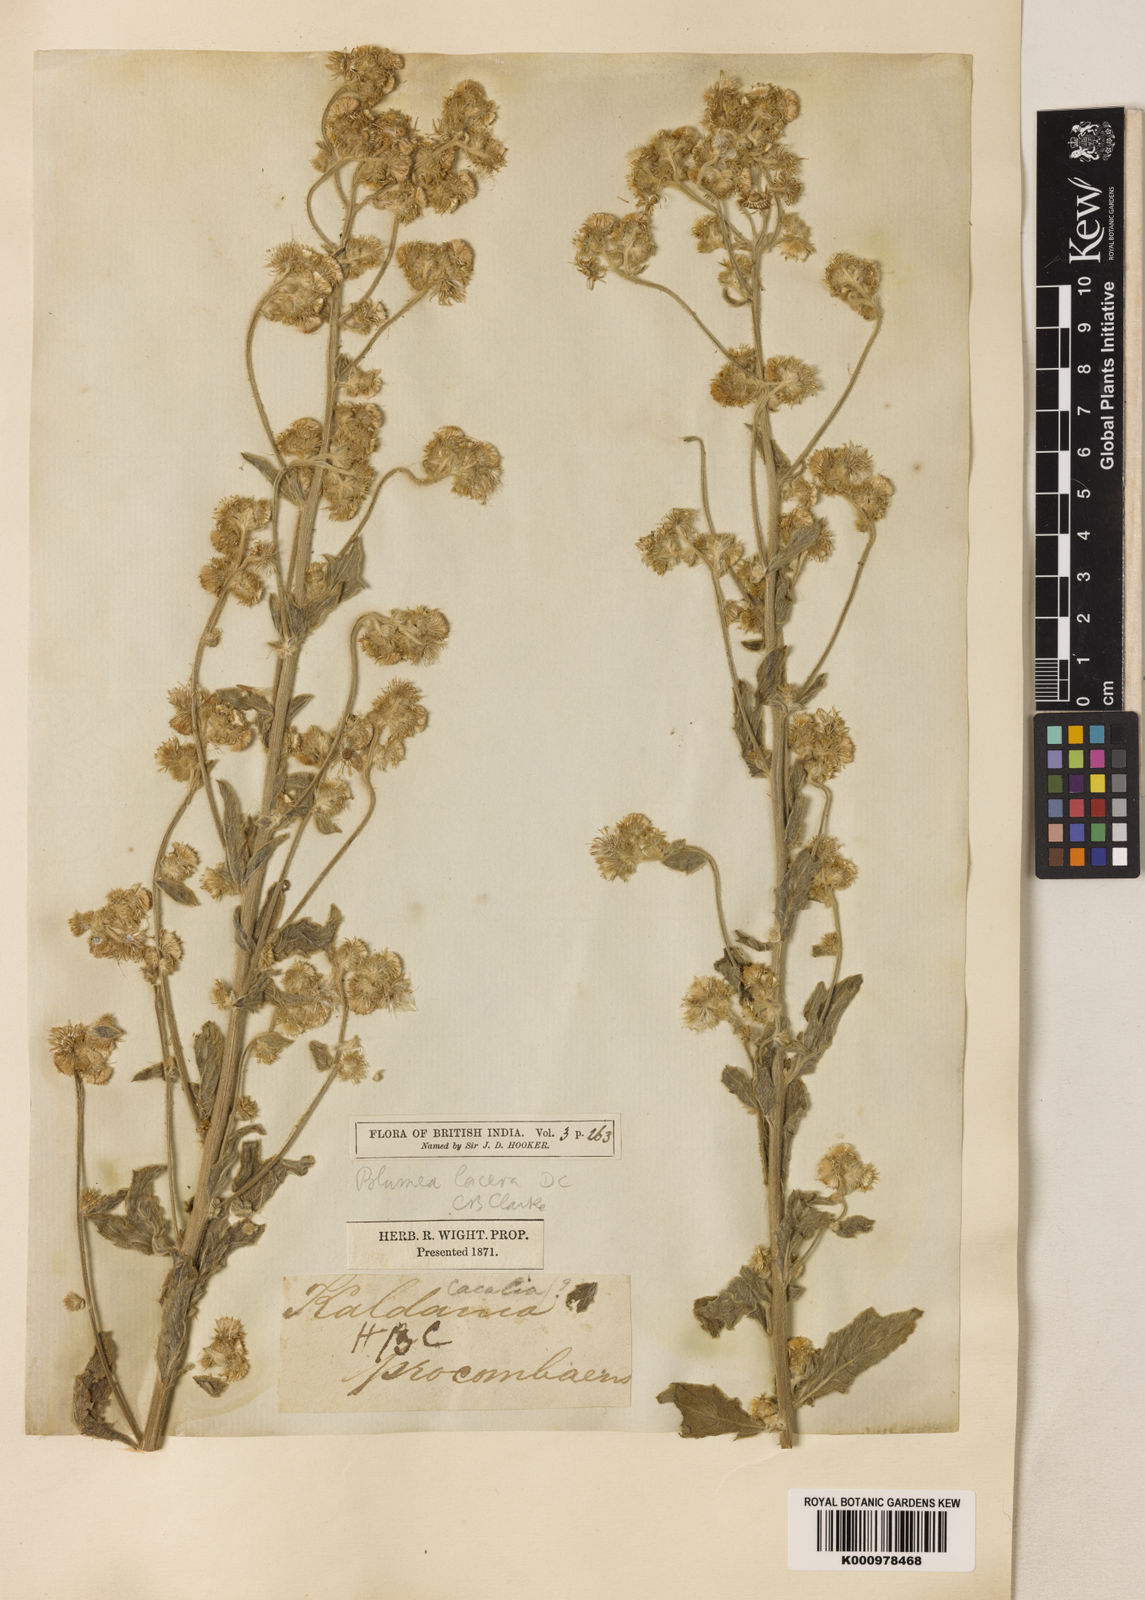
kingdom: Plantae
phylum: Tracheophyta
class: Magnoliopsida
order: Asterales
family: Asteraceae
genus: Blumea
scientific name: Blumea lacera
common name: Malay blumea
